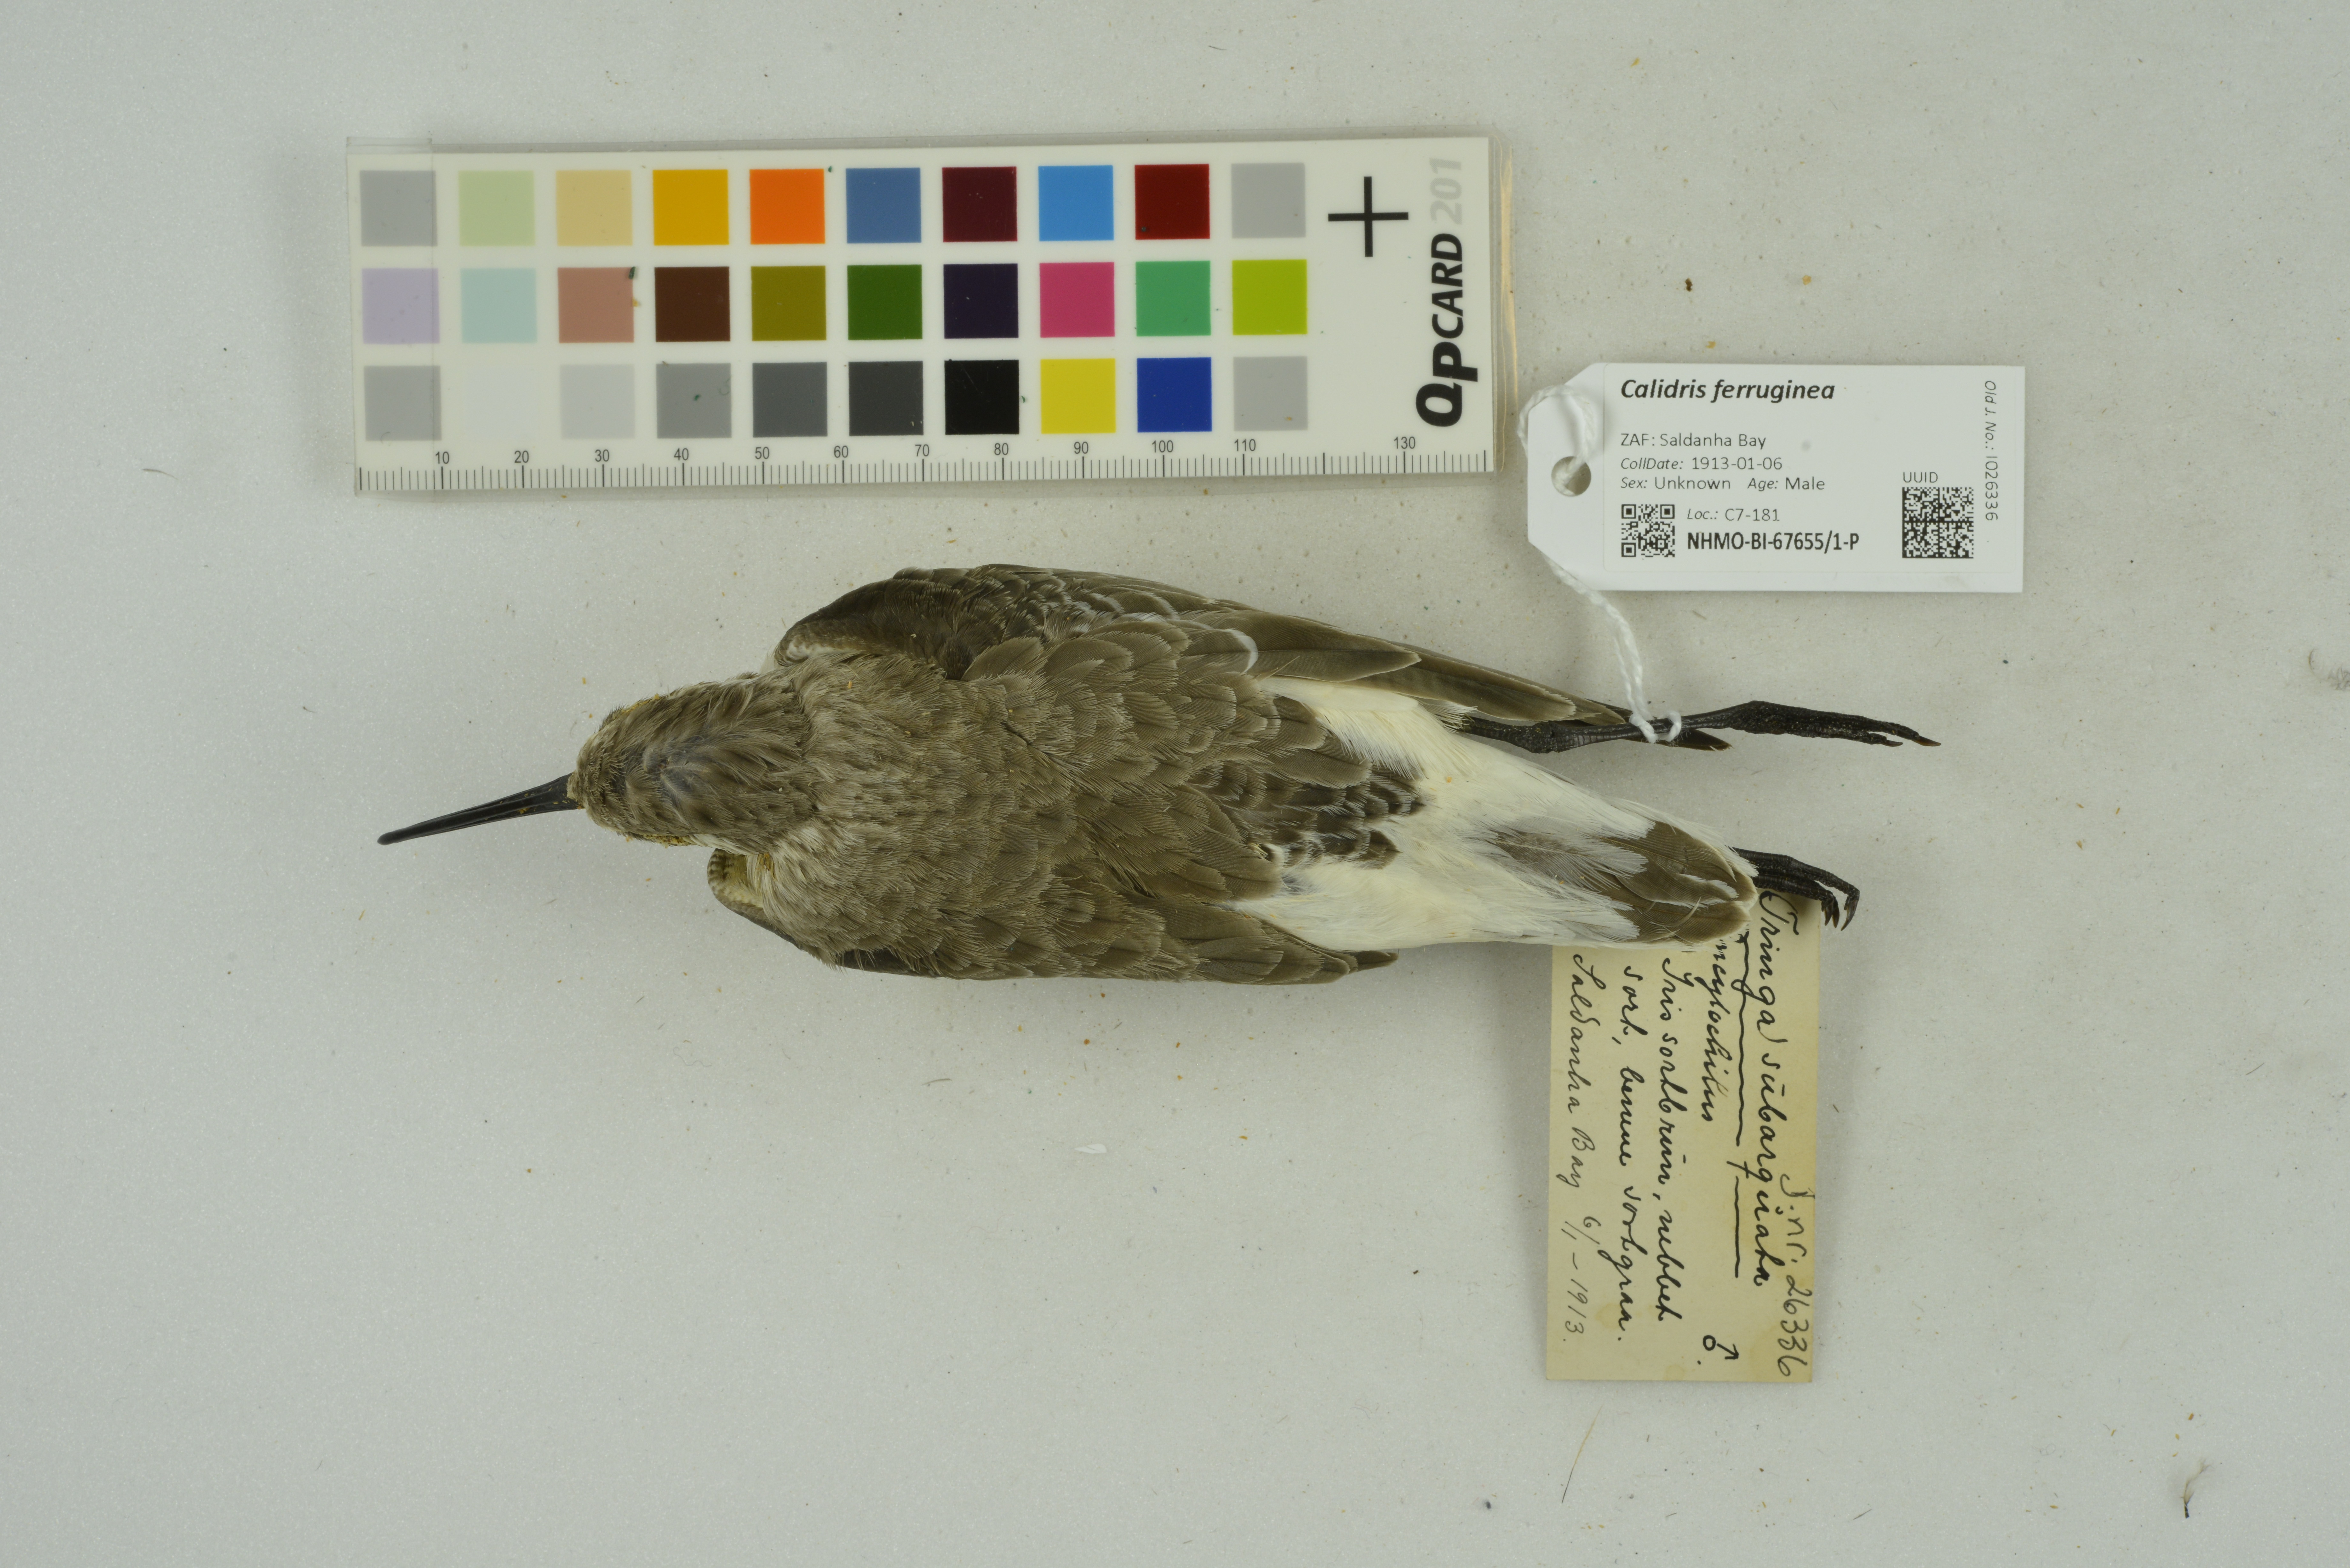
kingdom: Animalia
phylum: Chordata
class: Aves
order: Charadriiformes
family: Scolopacidae
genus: Calidris
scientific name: Calidris ferruginea
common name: Curlew sandpiper
